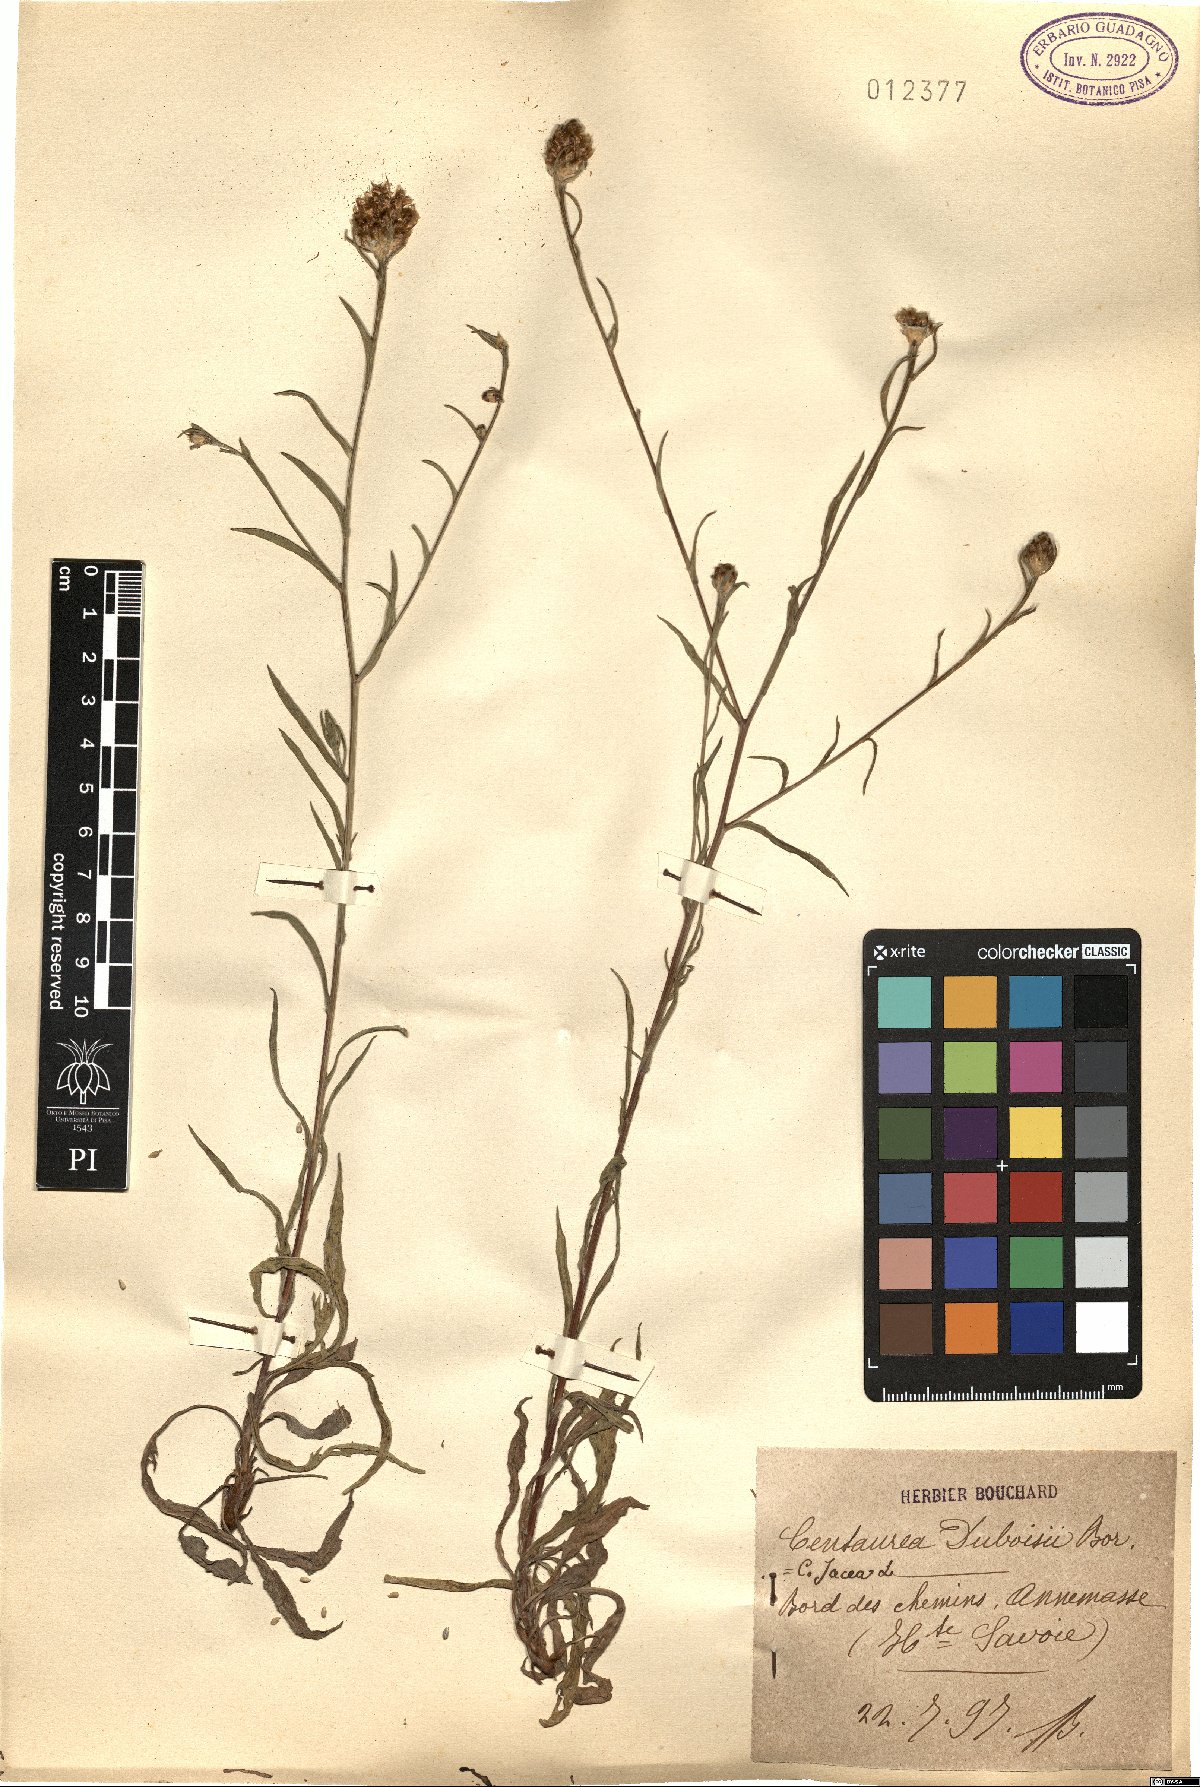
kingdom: Plantae
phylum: Tracheophyta
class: Magnoliopsida
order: Asterales
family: Asteraceae
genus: Centaurea
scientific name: Centaurea pannonica
